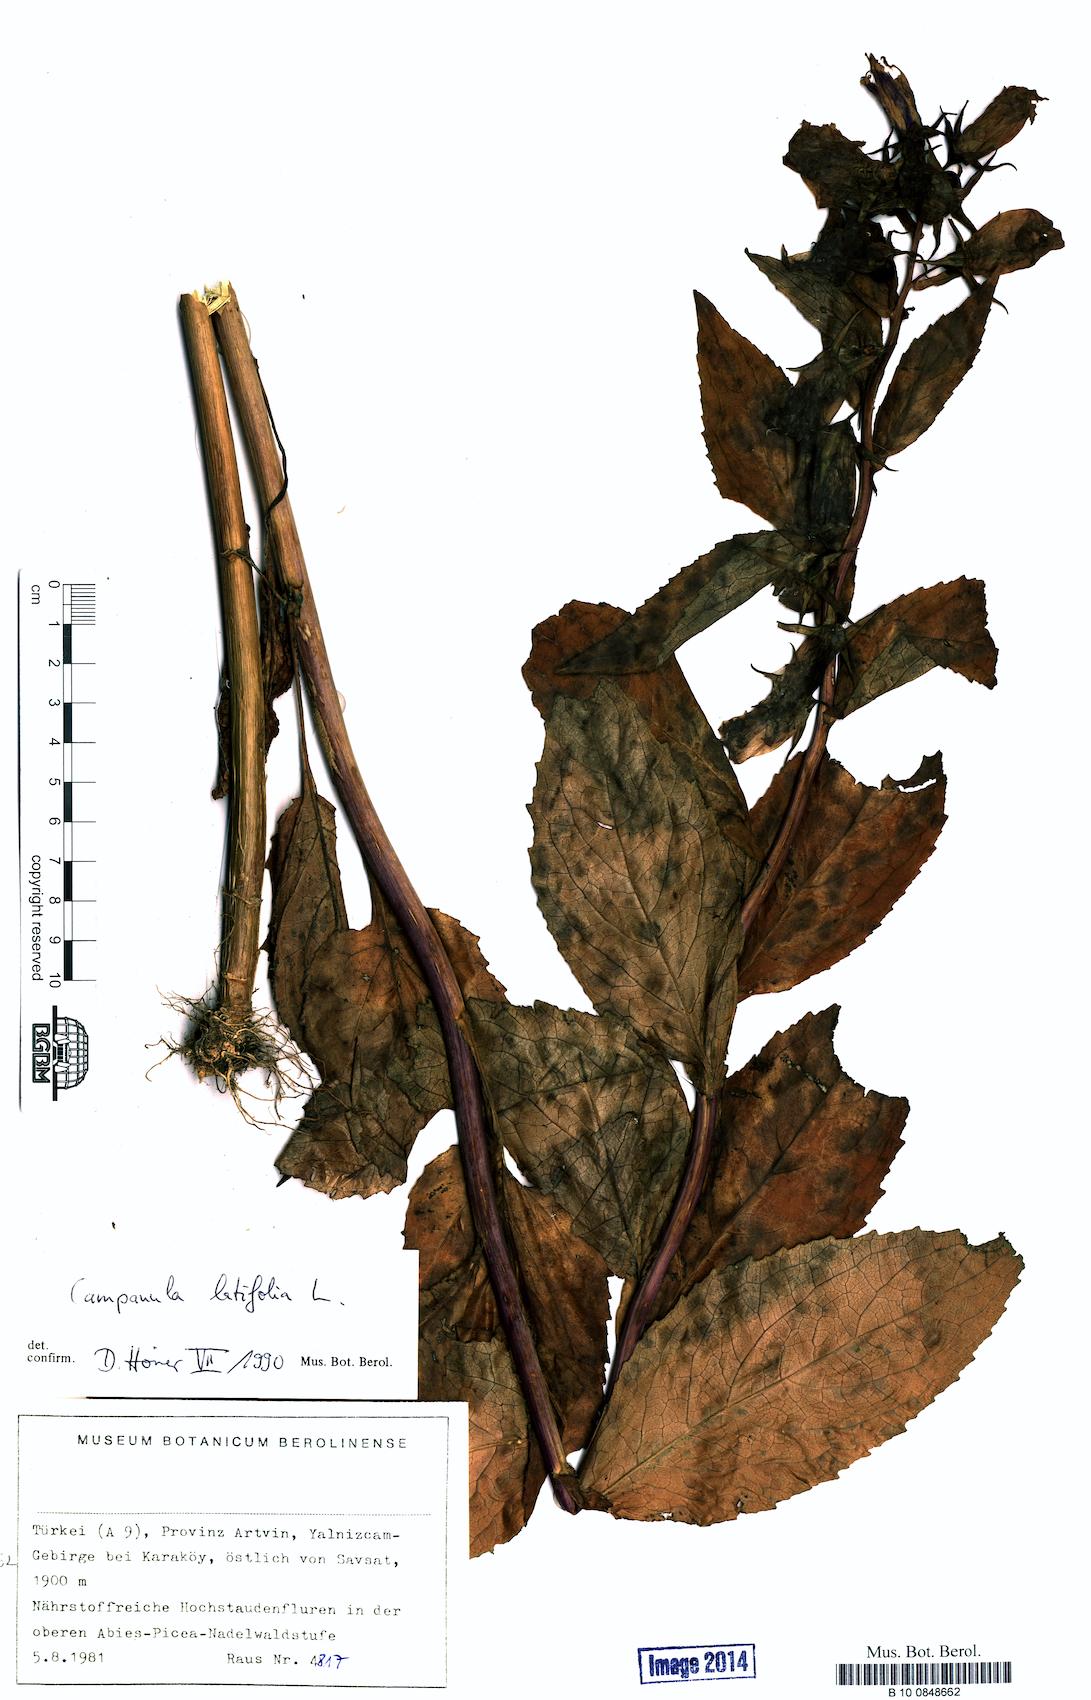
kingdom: Plantae
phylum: Tracheophyta
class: Magnoliopsida
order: Asterales
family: Campanulaceae
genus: Campanula
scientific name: Campanula latifolia
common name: Giant bellflower
